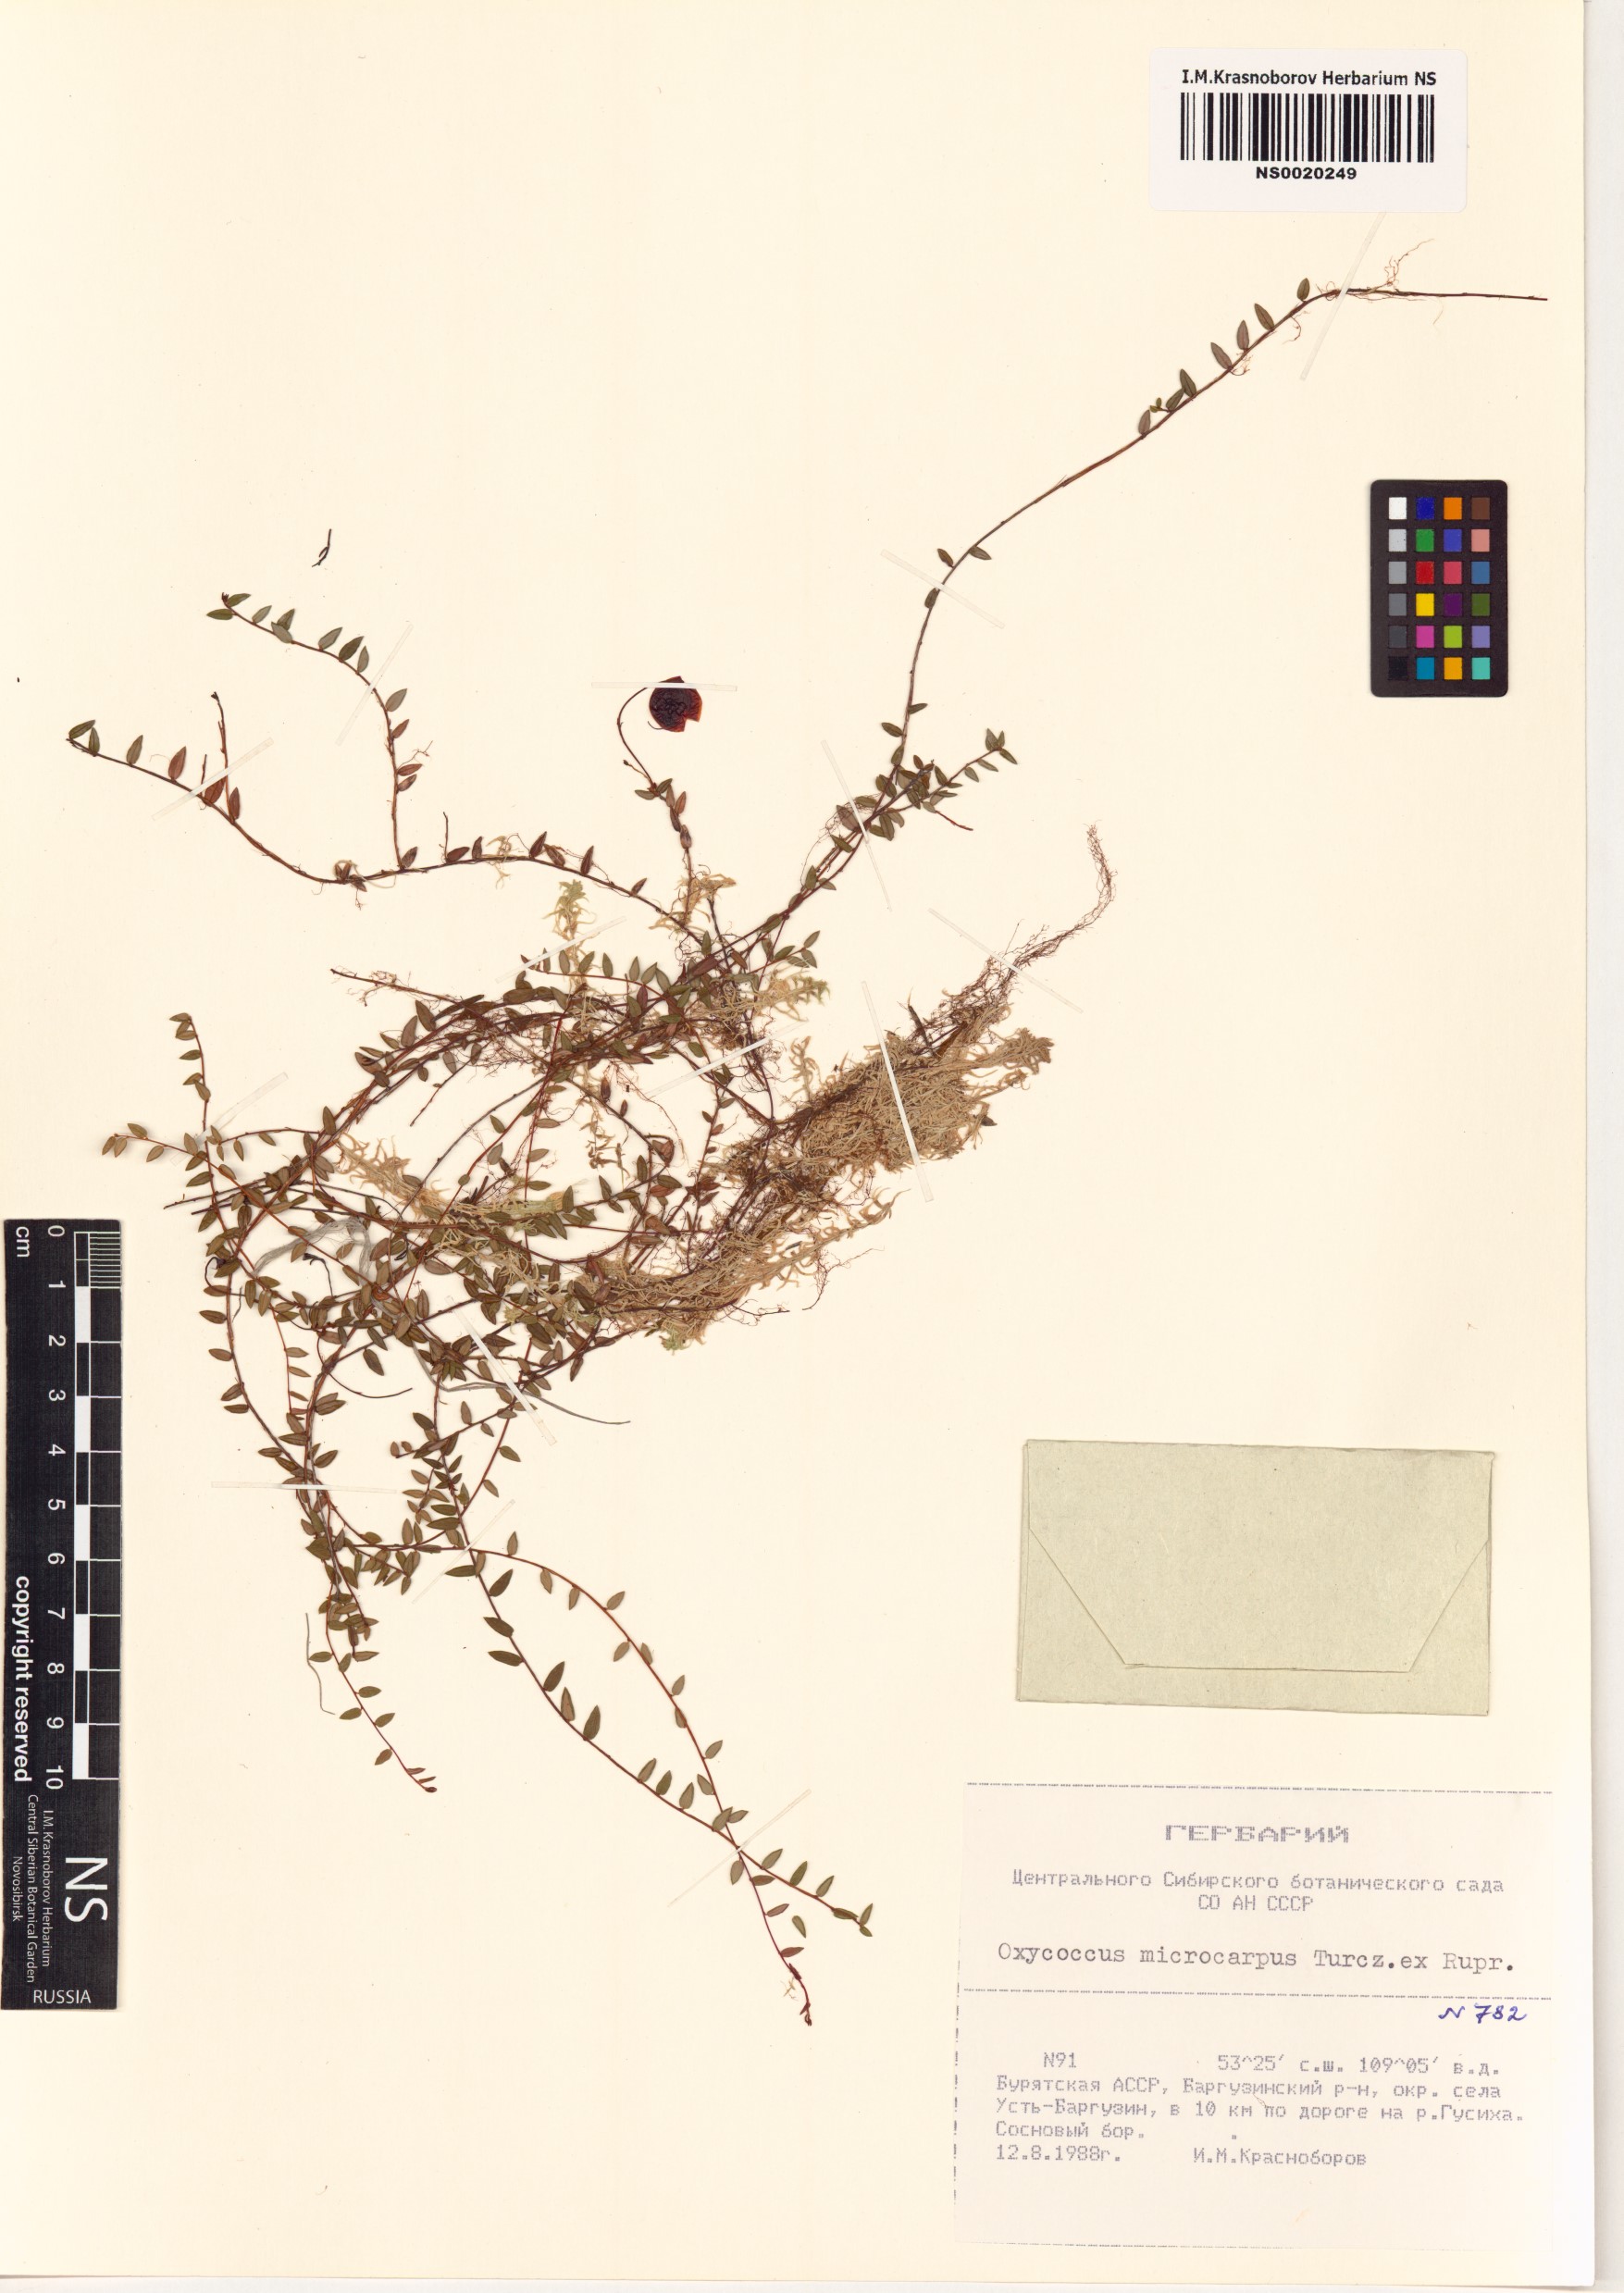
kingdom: Plantae
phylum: Tracheophyta
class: Magnoliopsida
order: Ericales
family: Ericaceae
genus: Vaccinium
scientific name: Vaccinium microcarpum
